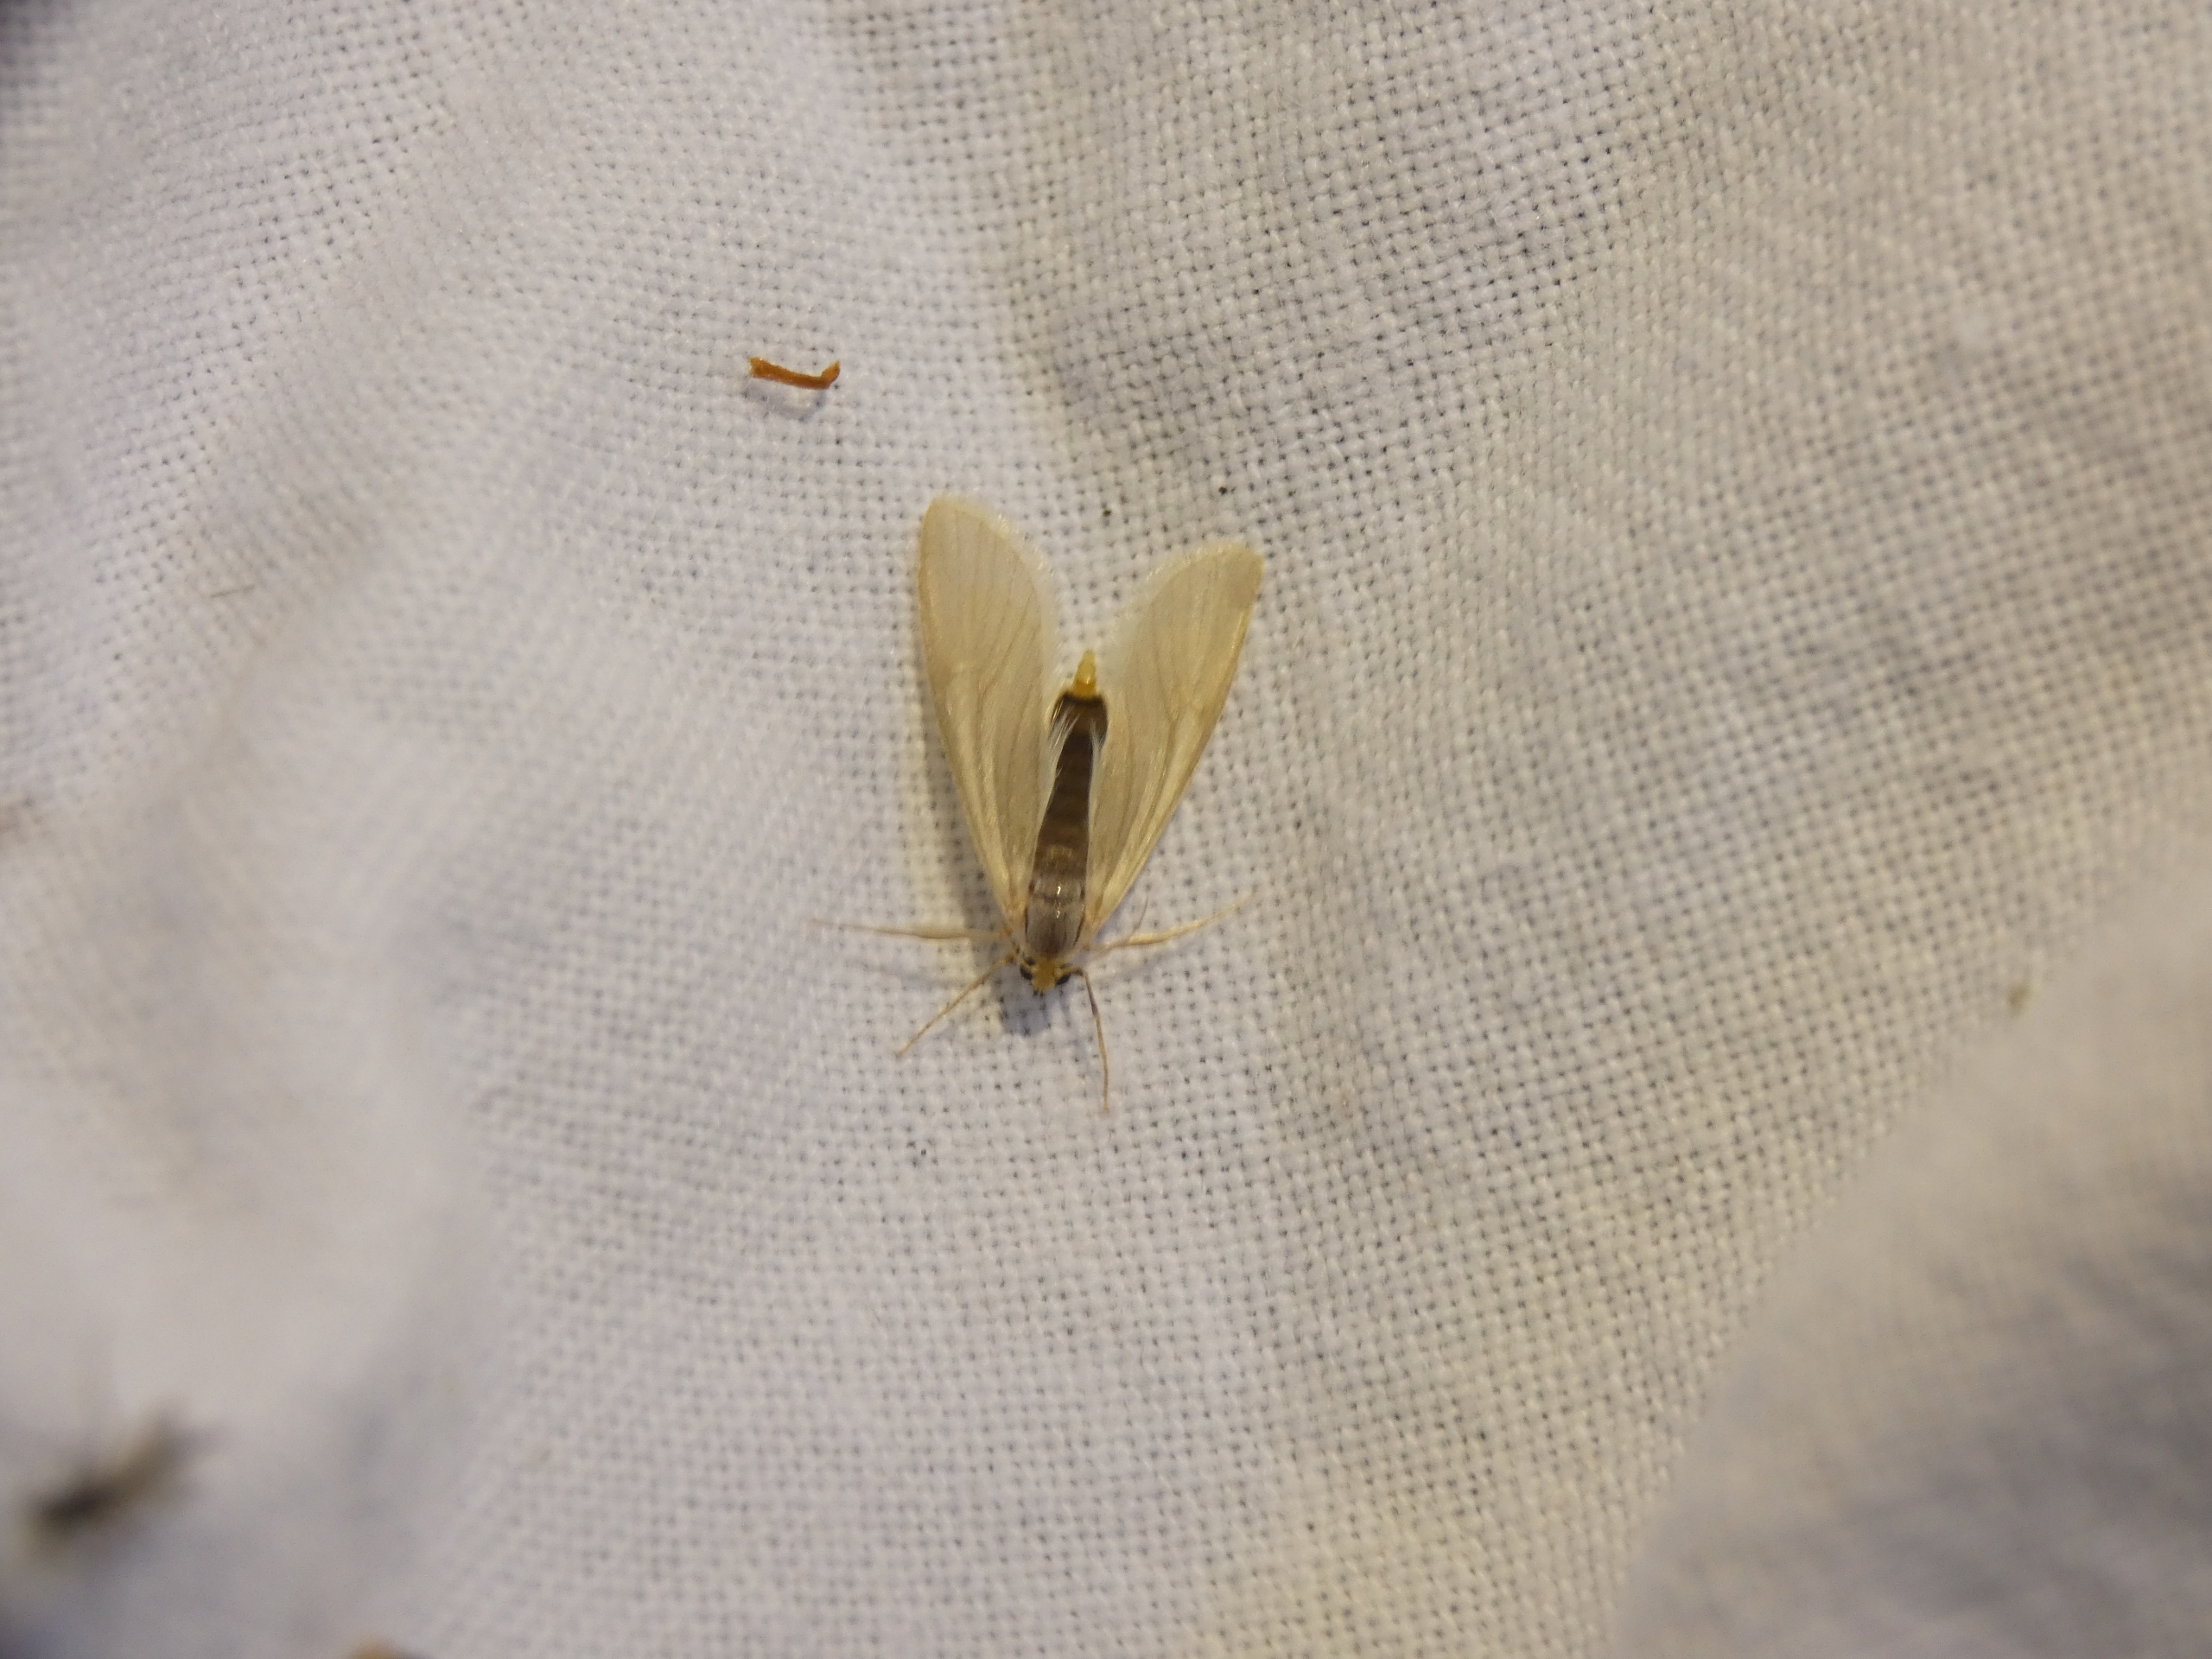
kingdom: Animalia
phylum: Arthropoda
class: Insecta
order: Lepidoptera
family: Crambidae
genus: Acentria
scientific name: Acentria ephemerella
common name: Vandmøl
